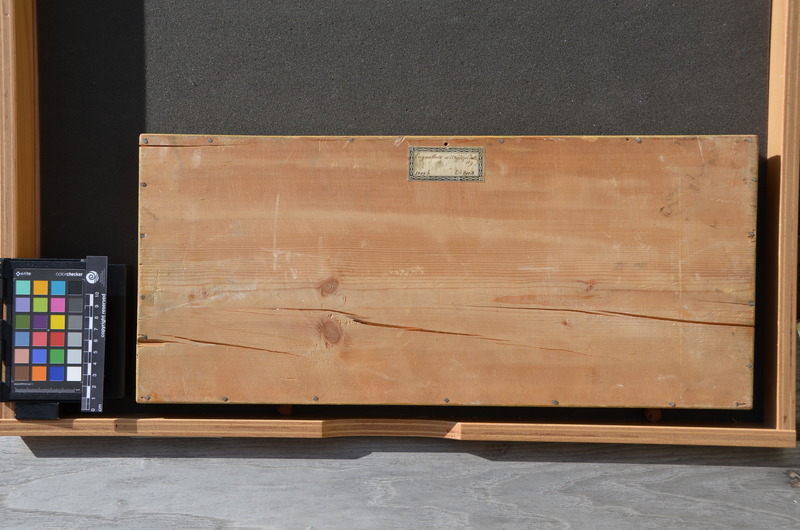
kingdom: Animalia
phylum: Chordata
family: Ophiopsiellidae
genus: Furo
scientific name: Furo microlepidotes
